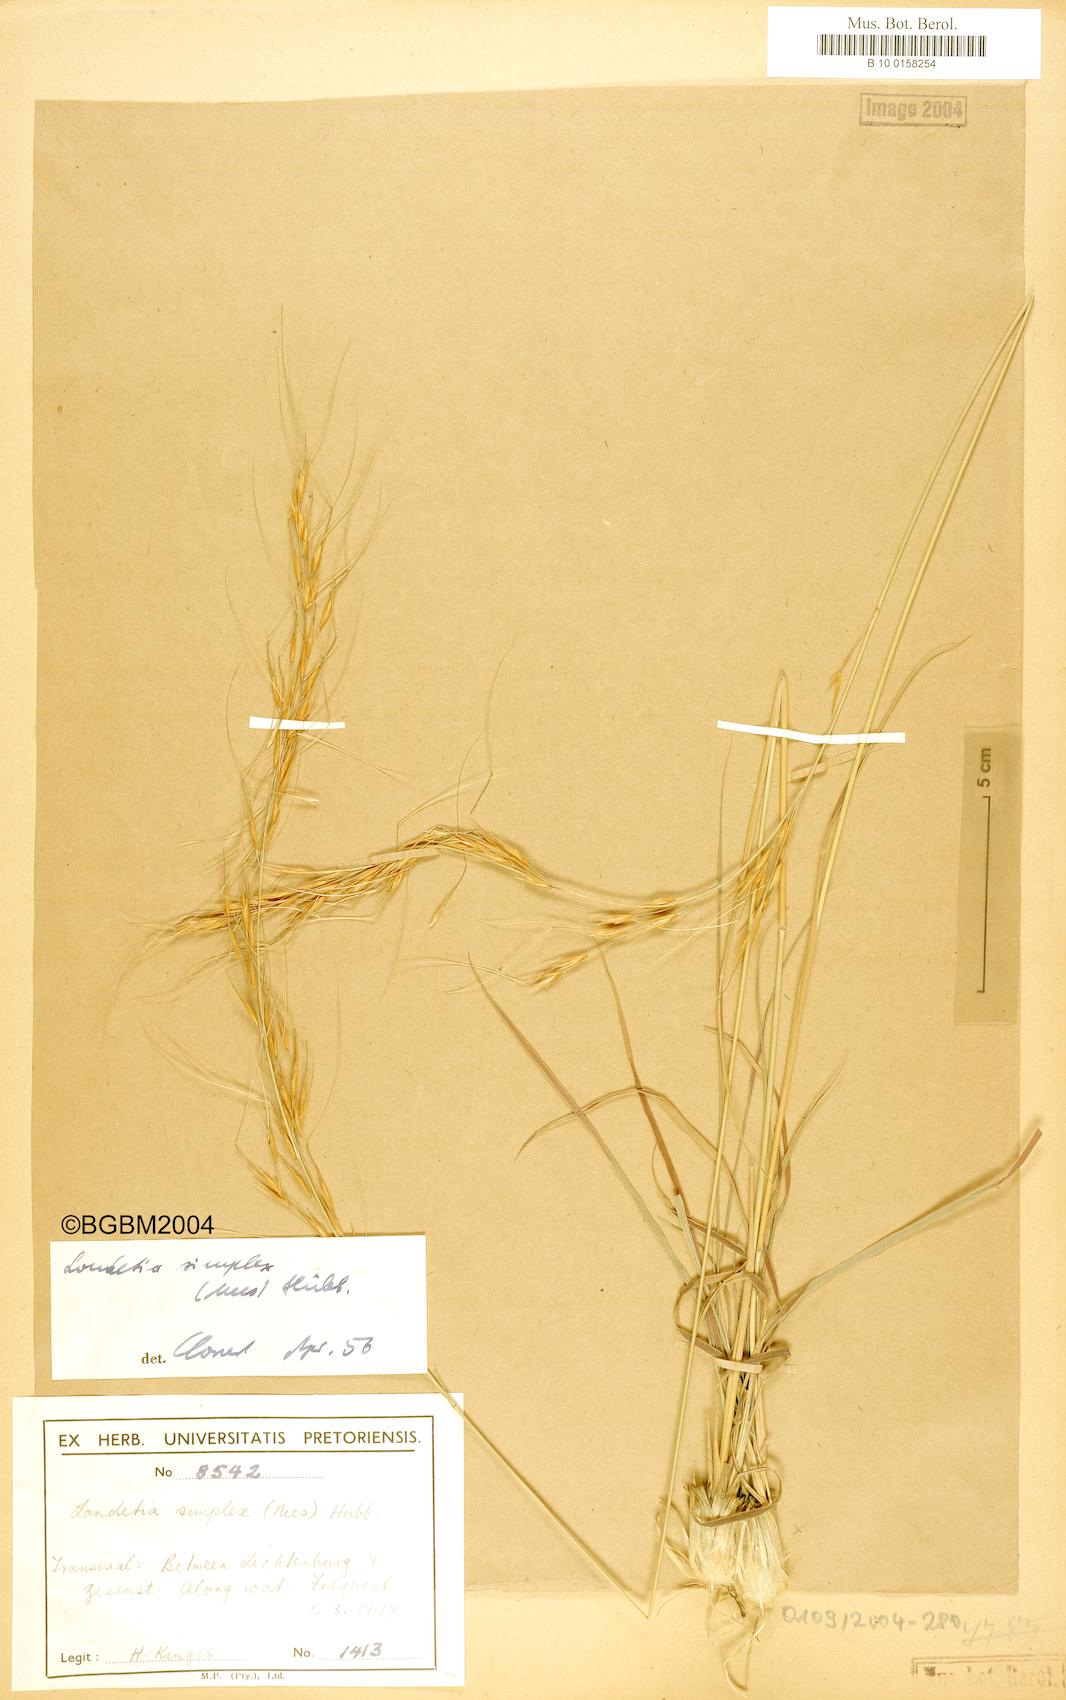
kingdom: Plantae
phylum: Tracheophyta
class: Liliopsida
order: Poales
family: Poaceae
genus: Loudetia
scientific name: Loudetia simplex
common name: Common russet grass
